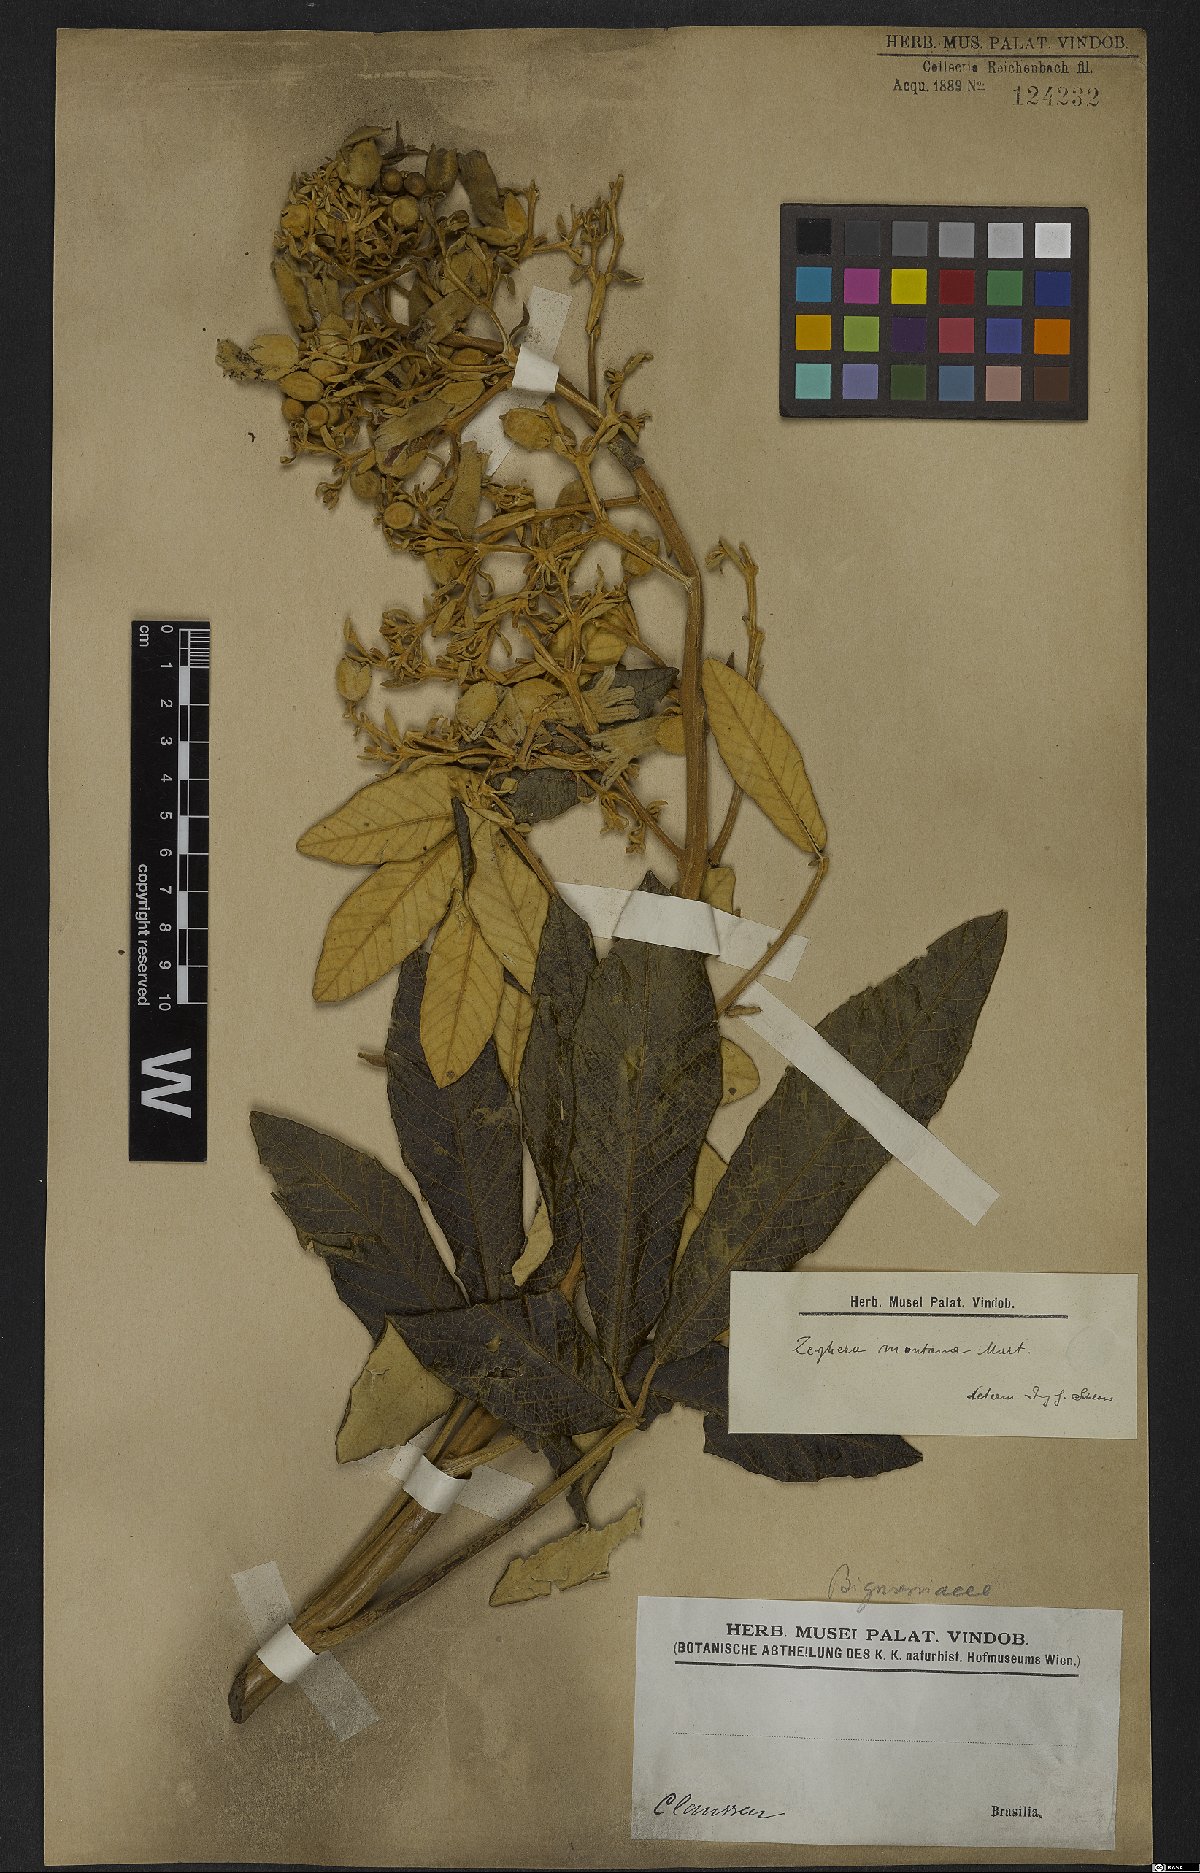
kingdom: Plantae
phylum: Tracheophyta
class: Magnoliopsida
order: Lamiales
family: Bignoniaceae
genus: Zeyheria
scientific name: Zeyheria montana
